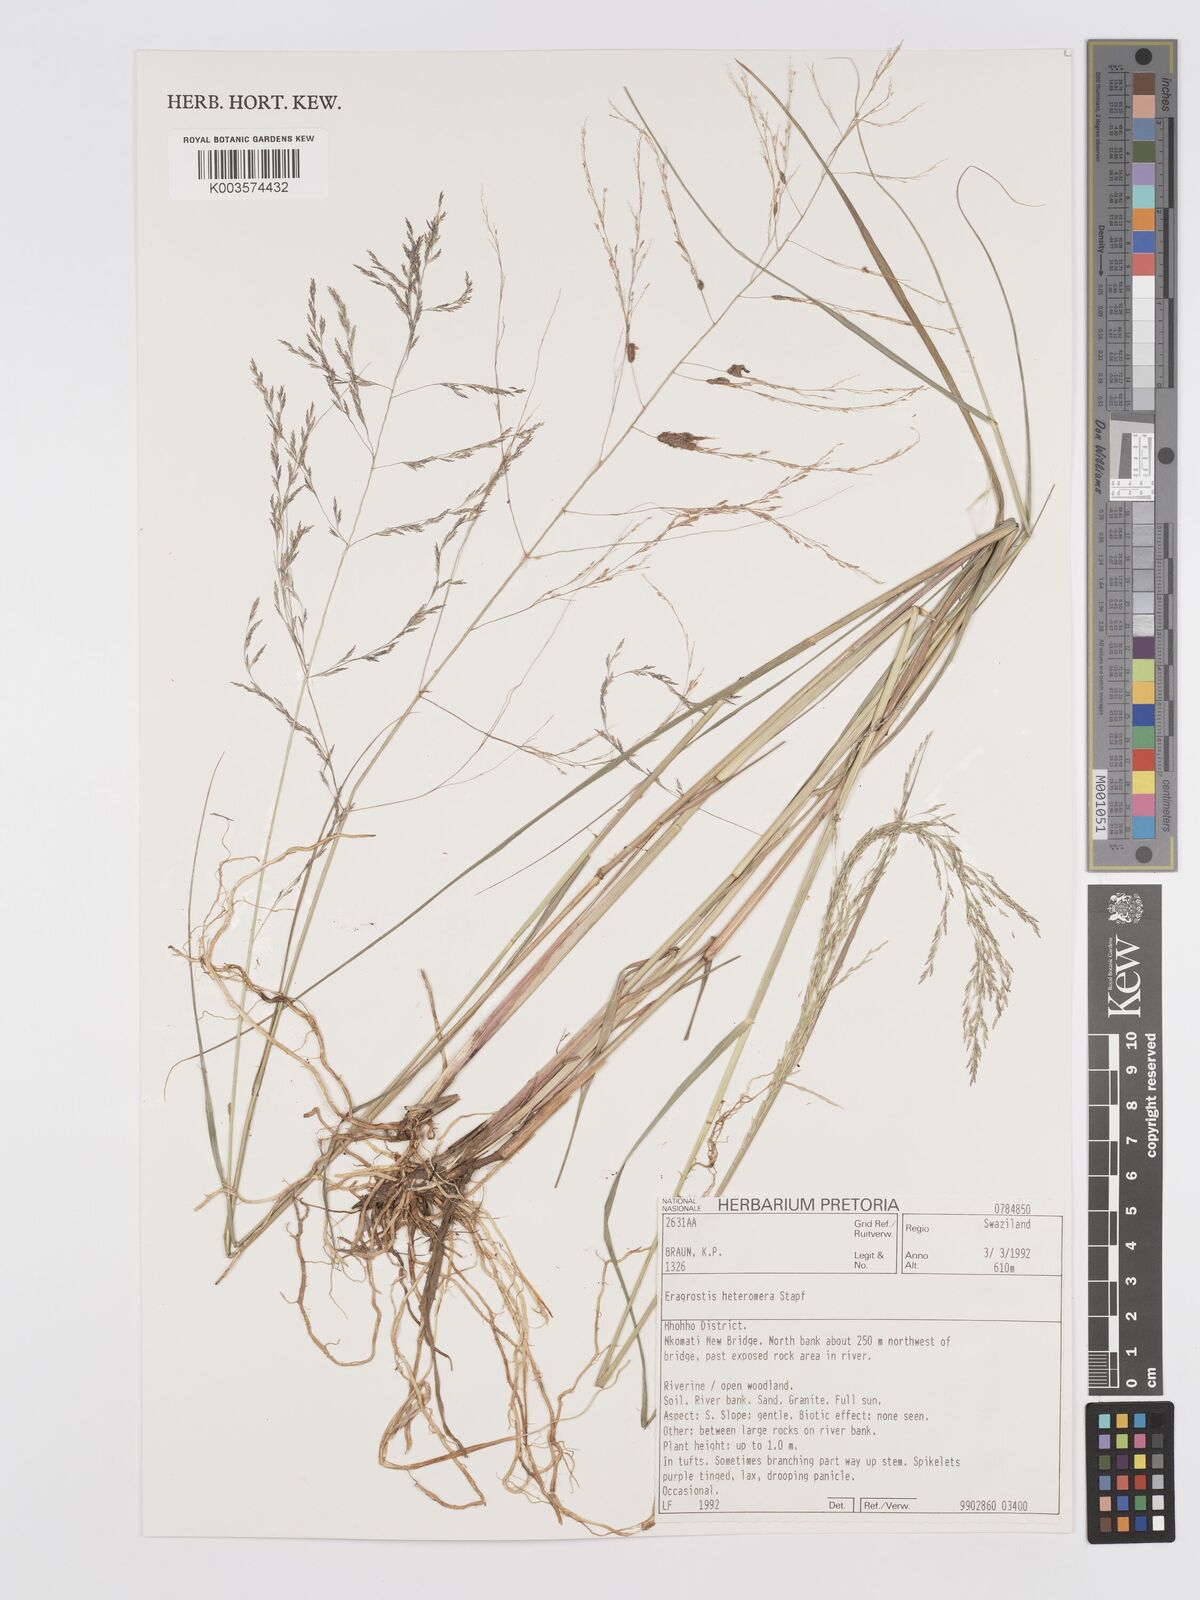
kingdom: Plantae
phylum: Tracheophyta
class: Liliopsida
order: Poales
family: Poaceae
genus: Eragrostis
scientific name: Eragrostis heteromera
